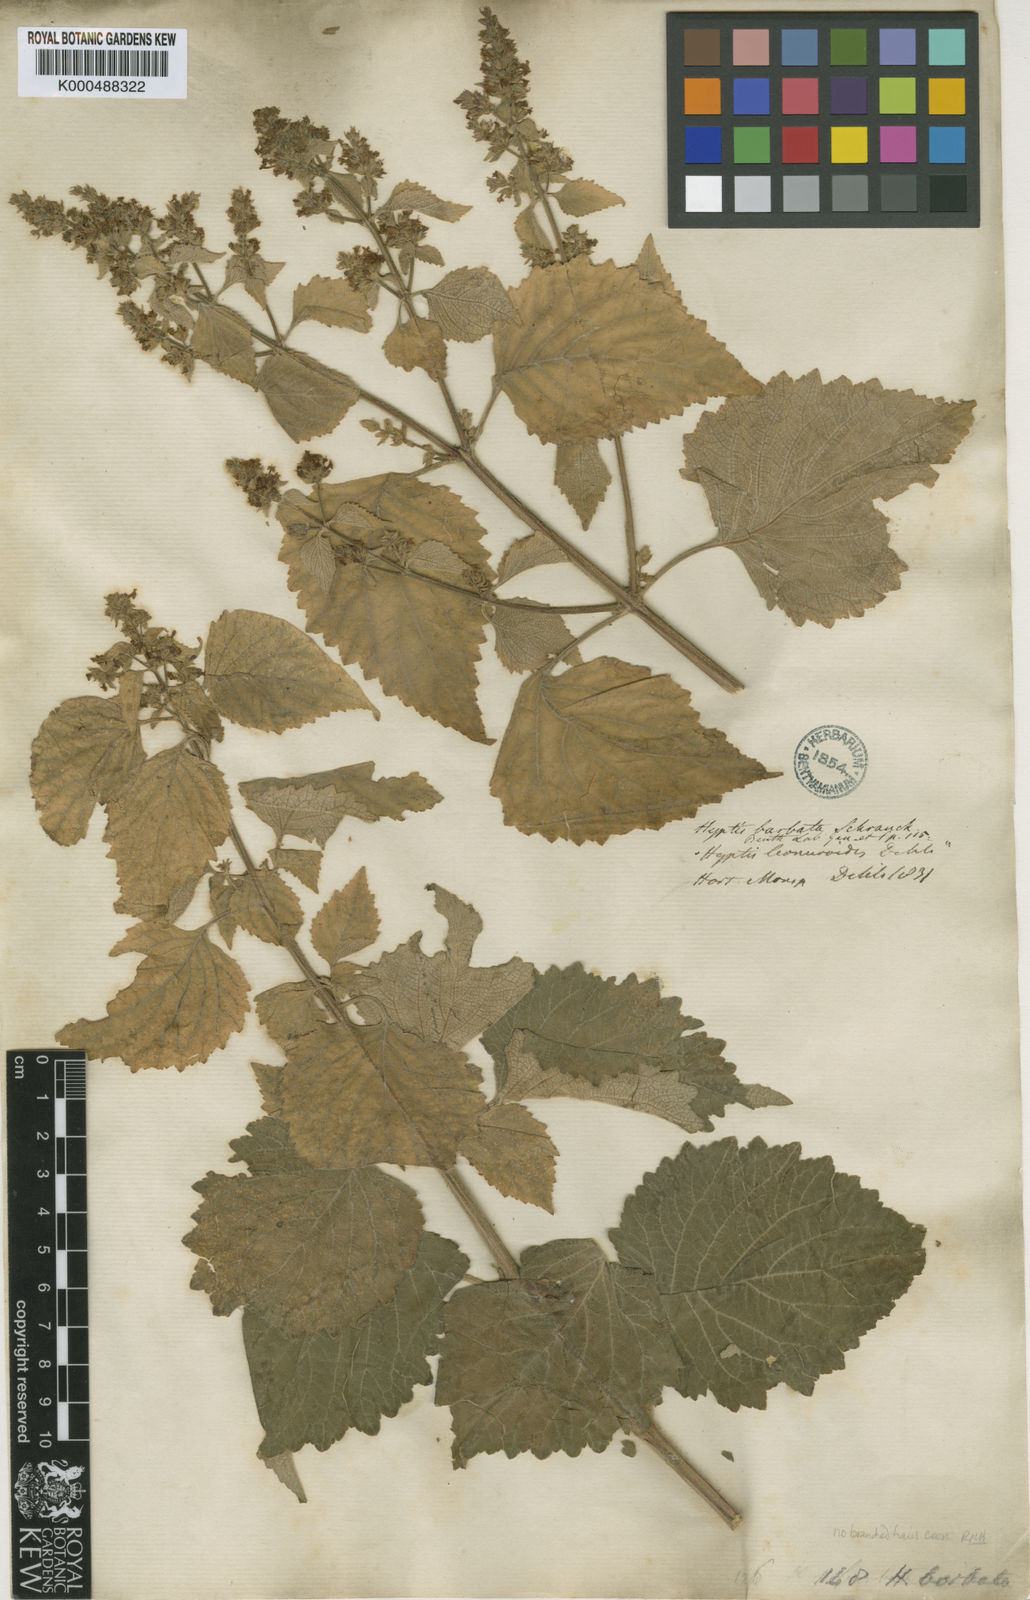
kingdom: Plantae
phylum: Tracheophyta
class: Magnoliopsida
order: Lamiales
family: Lamiaceae
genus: Cantinoa
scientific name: Cantinoa mutabilis
